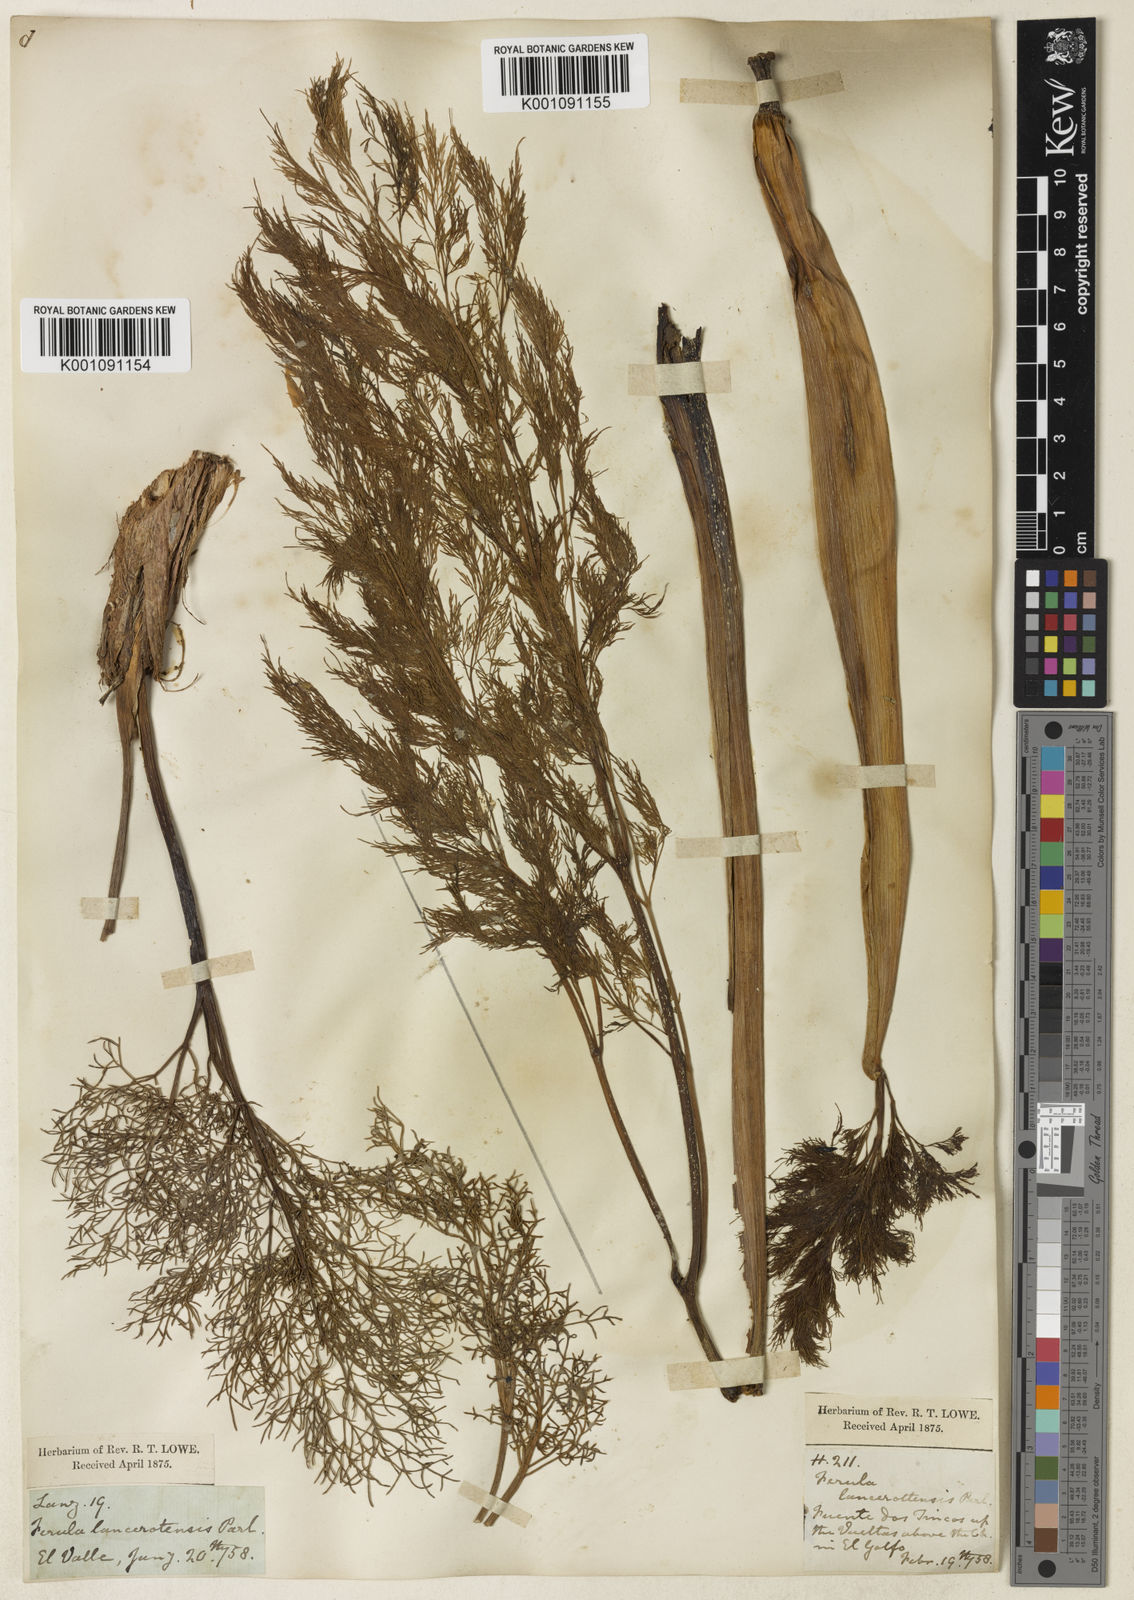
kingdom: Plantae
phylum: Tracheophyta
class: Magnoliopsida
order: Apiales
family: Apiaceae
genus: Ferula
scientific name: Ferula communis
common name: Giant fennel
